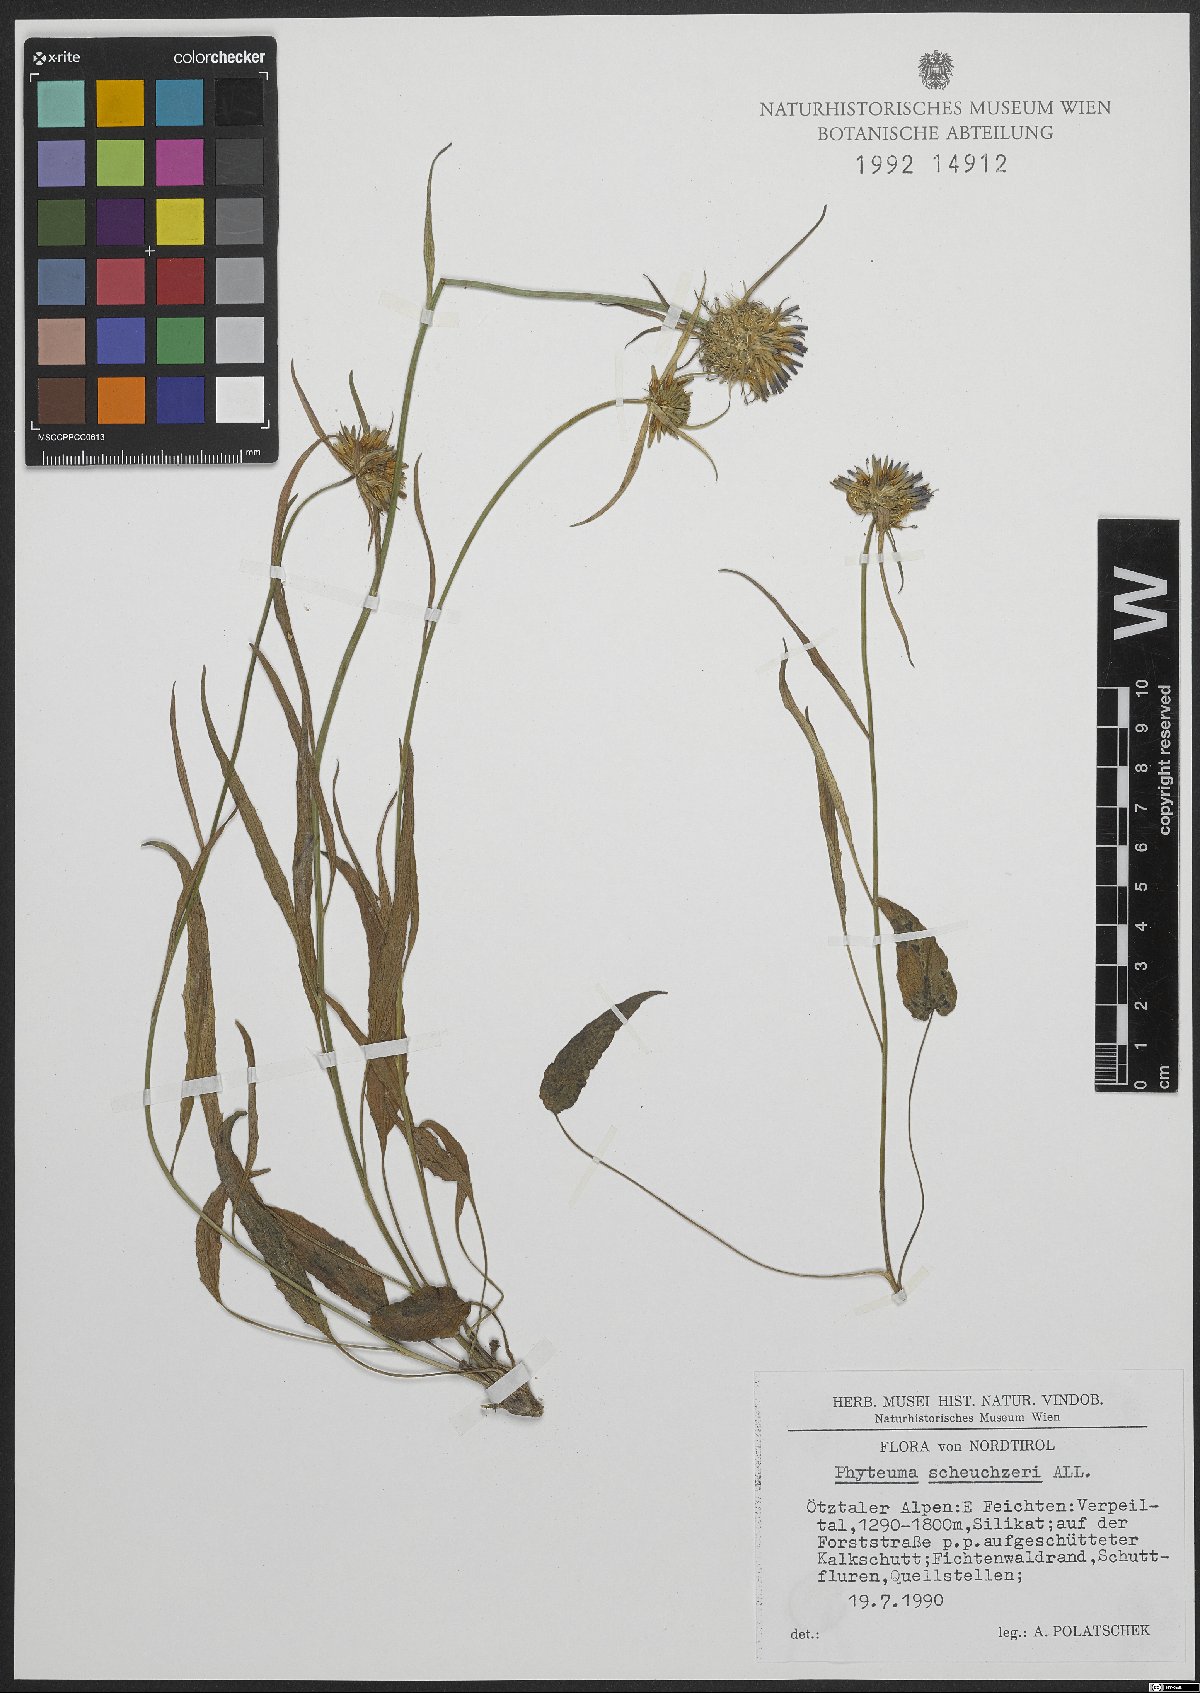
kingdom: Plantae
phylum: Tracheophyta
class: Magnoliopsida
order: Asterales
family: Campanulaceae
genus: Phyteuma
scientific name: Phyteuma scheuchzeri
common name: Oxford rampion
